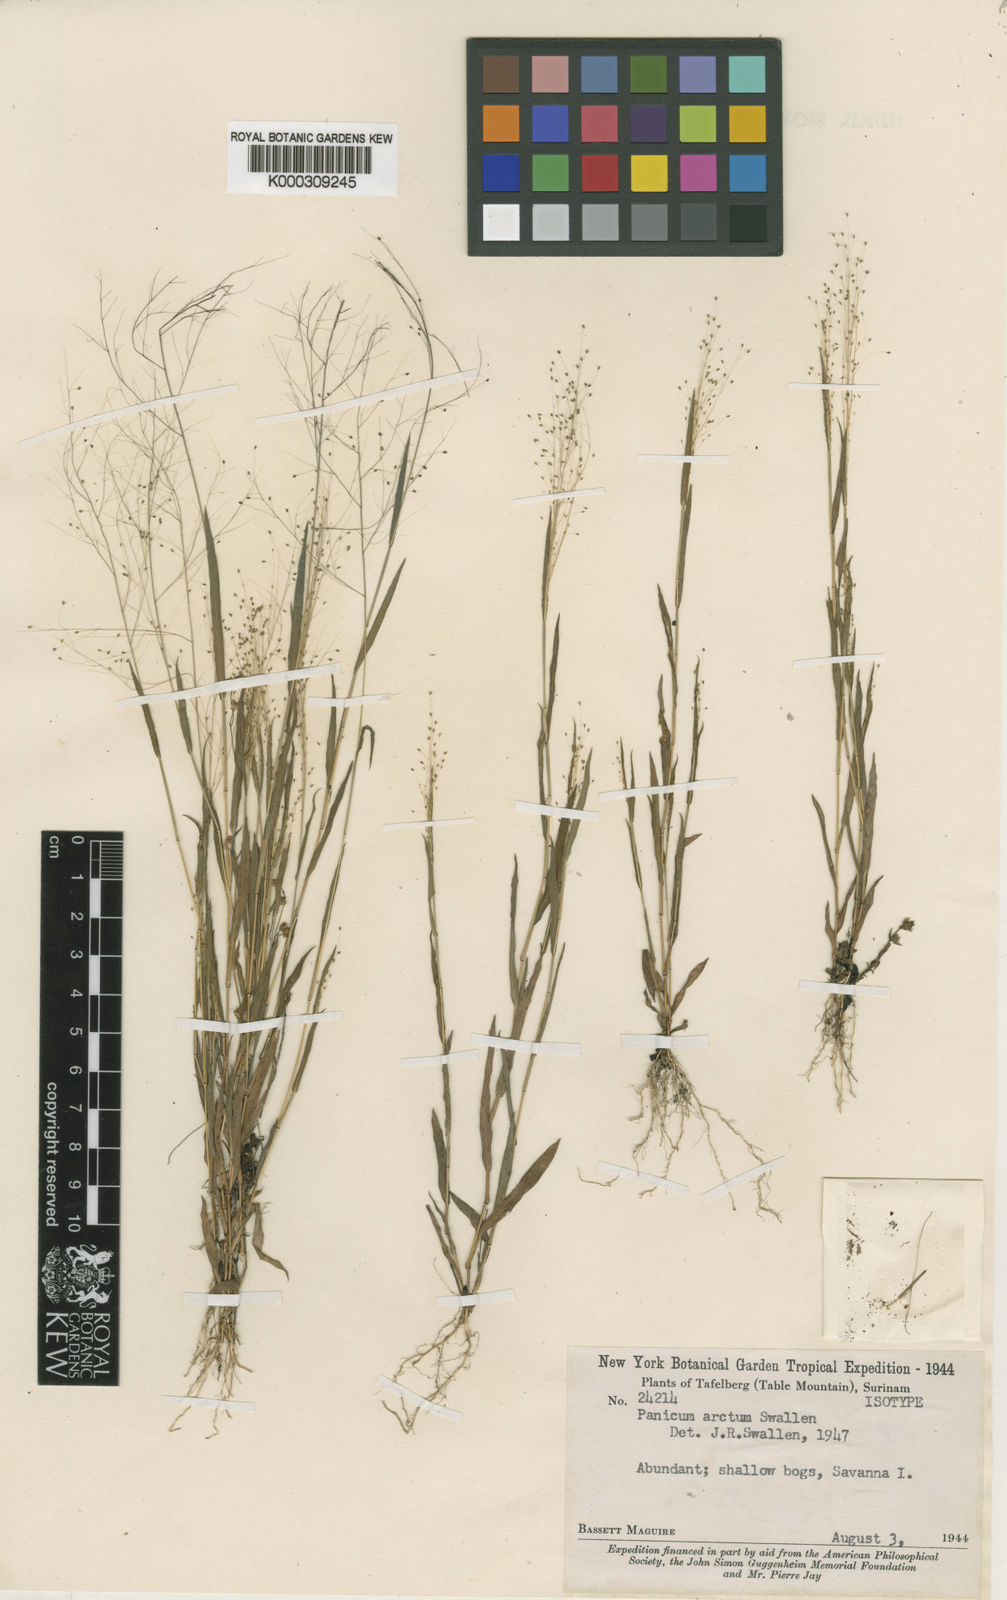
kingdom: Plantae
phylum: Tracheophyta
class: Liliopsida
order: Poales
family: Poaceae
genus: Trichanthecium
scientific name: Trichanthecium arctum
